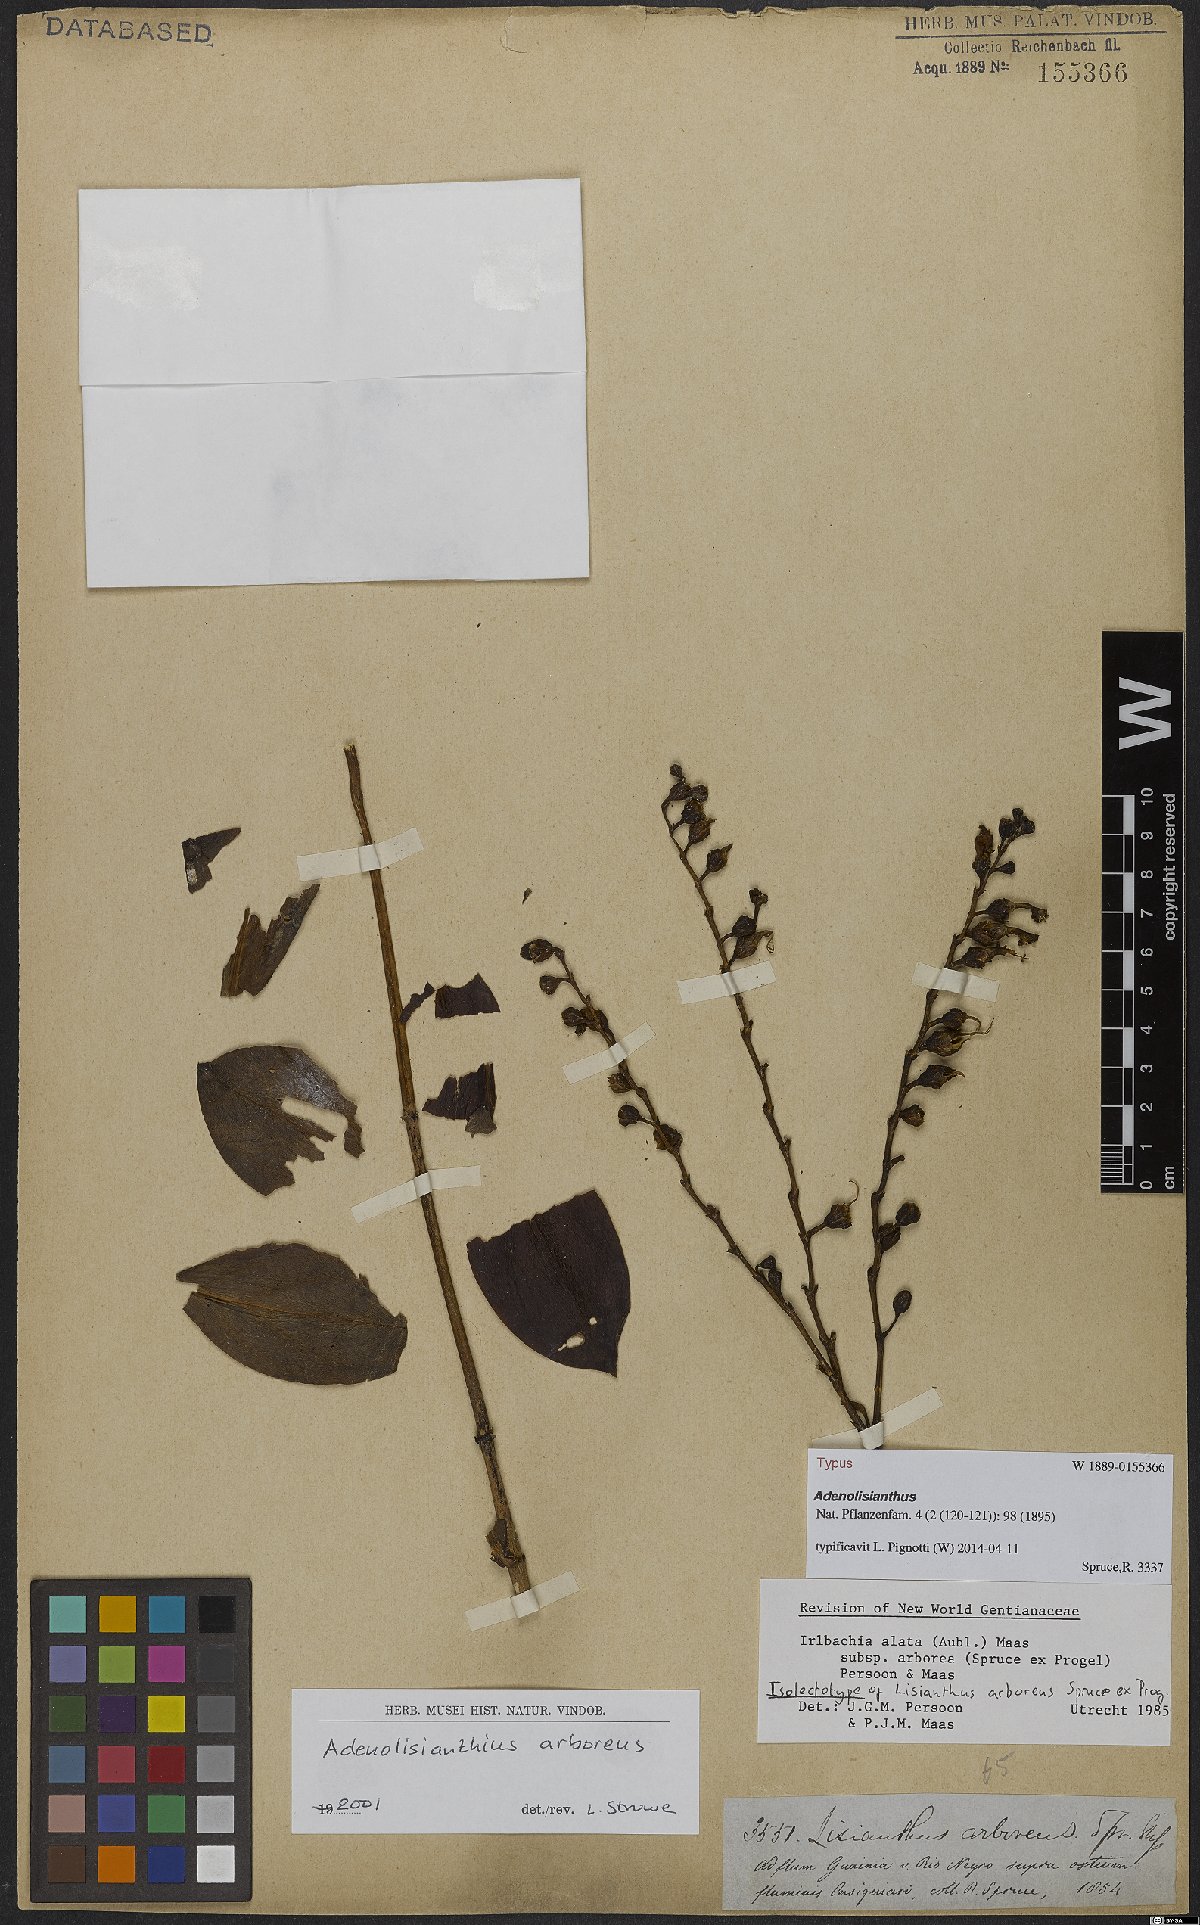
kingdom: Plantae
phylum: Tracheophyta
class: Magnoliopsida
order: Gentianales
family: Gentianaceae
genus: Adenolisianthus
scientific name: Adenolisianthus arboreus
